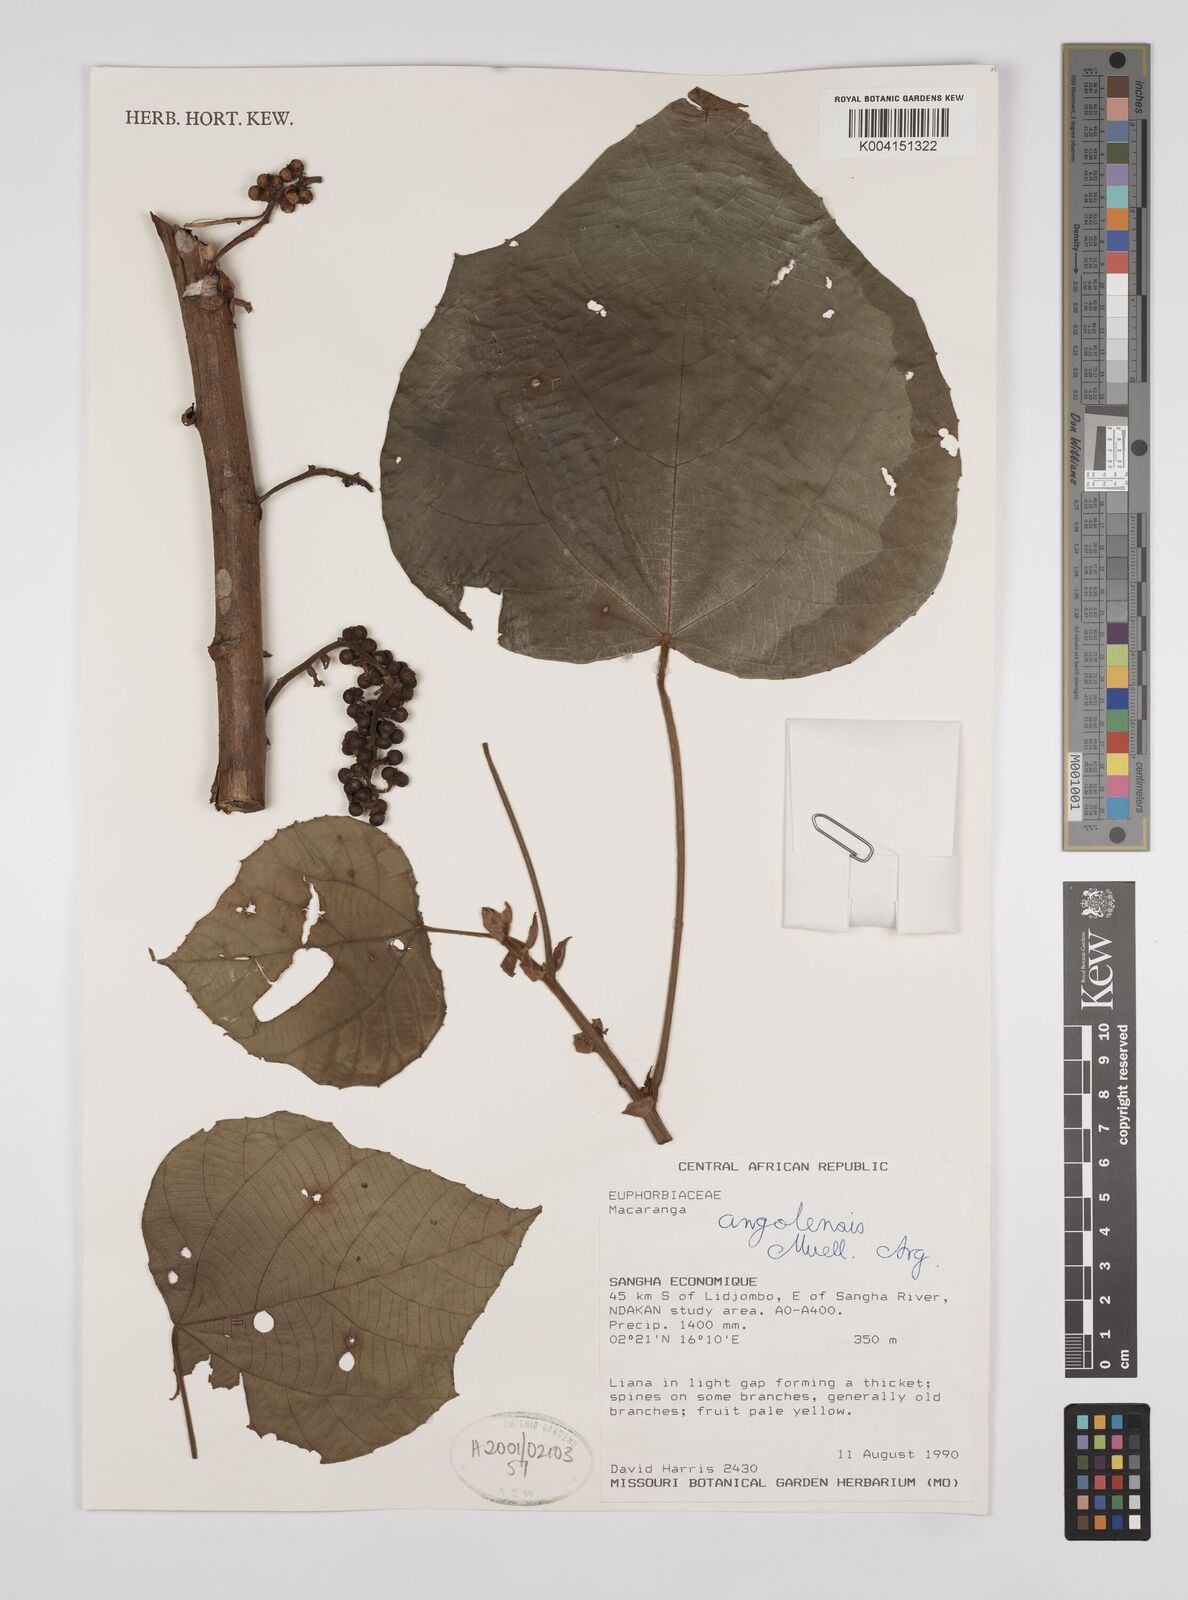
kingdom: Plantae
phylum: Tracheophyta
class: Magnoliopsida
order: Malpighiales
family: Euphorbiaceae
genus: Macaranga
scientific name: Macaranga angolensis
